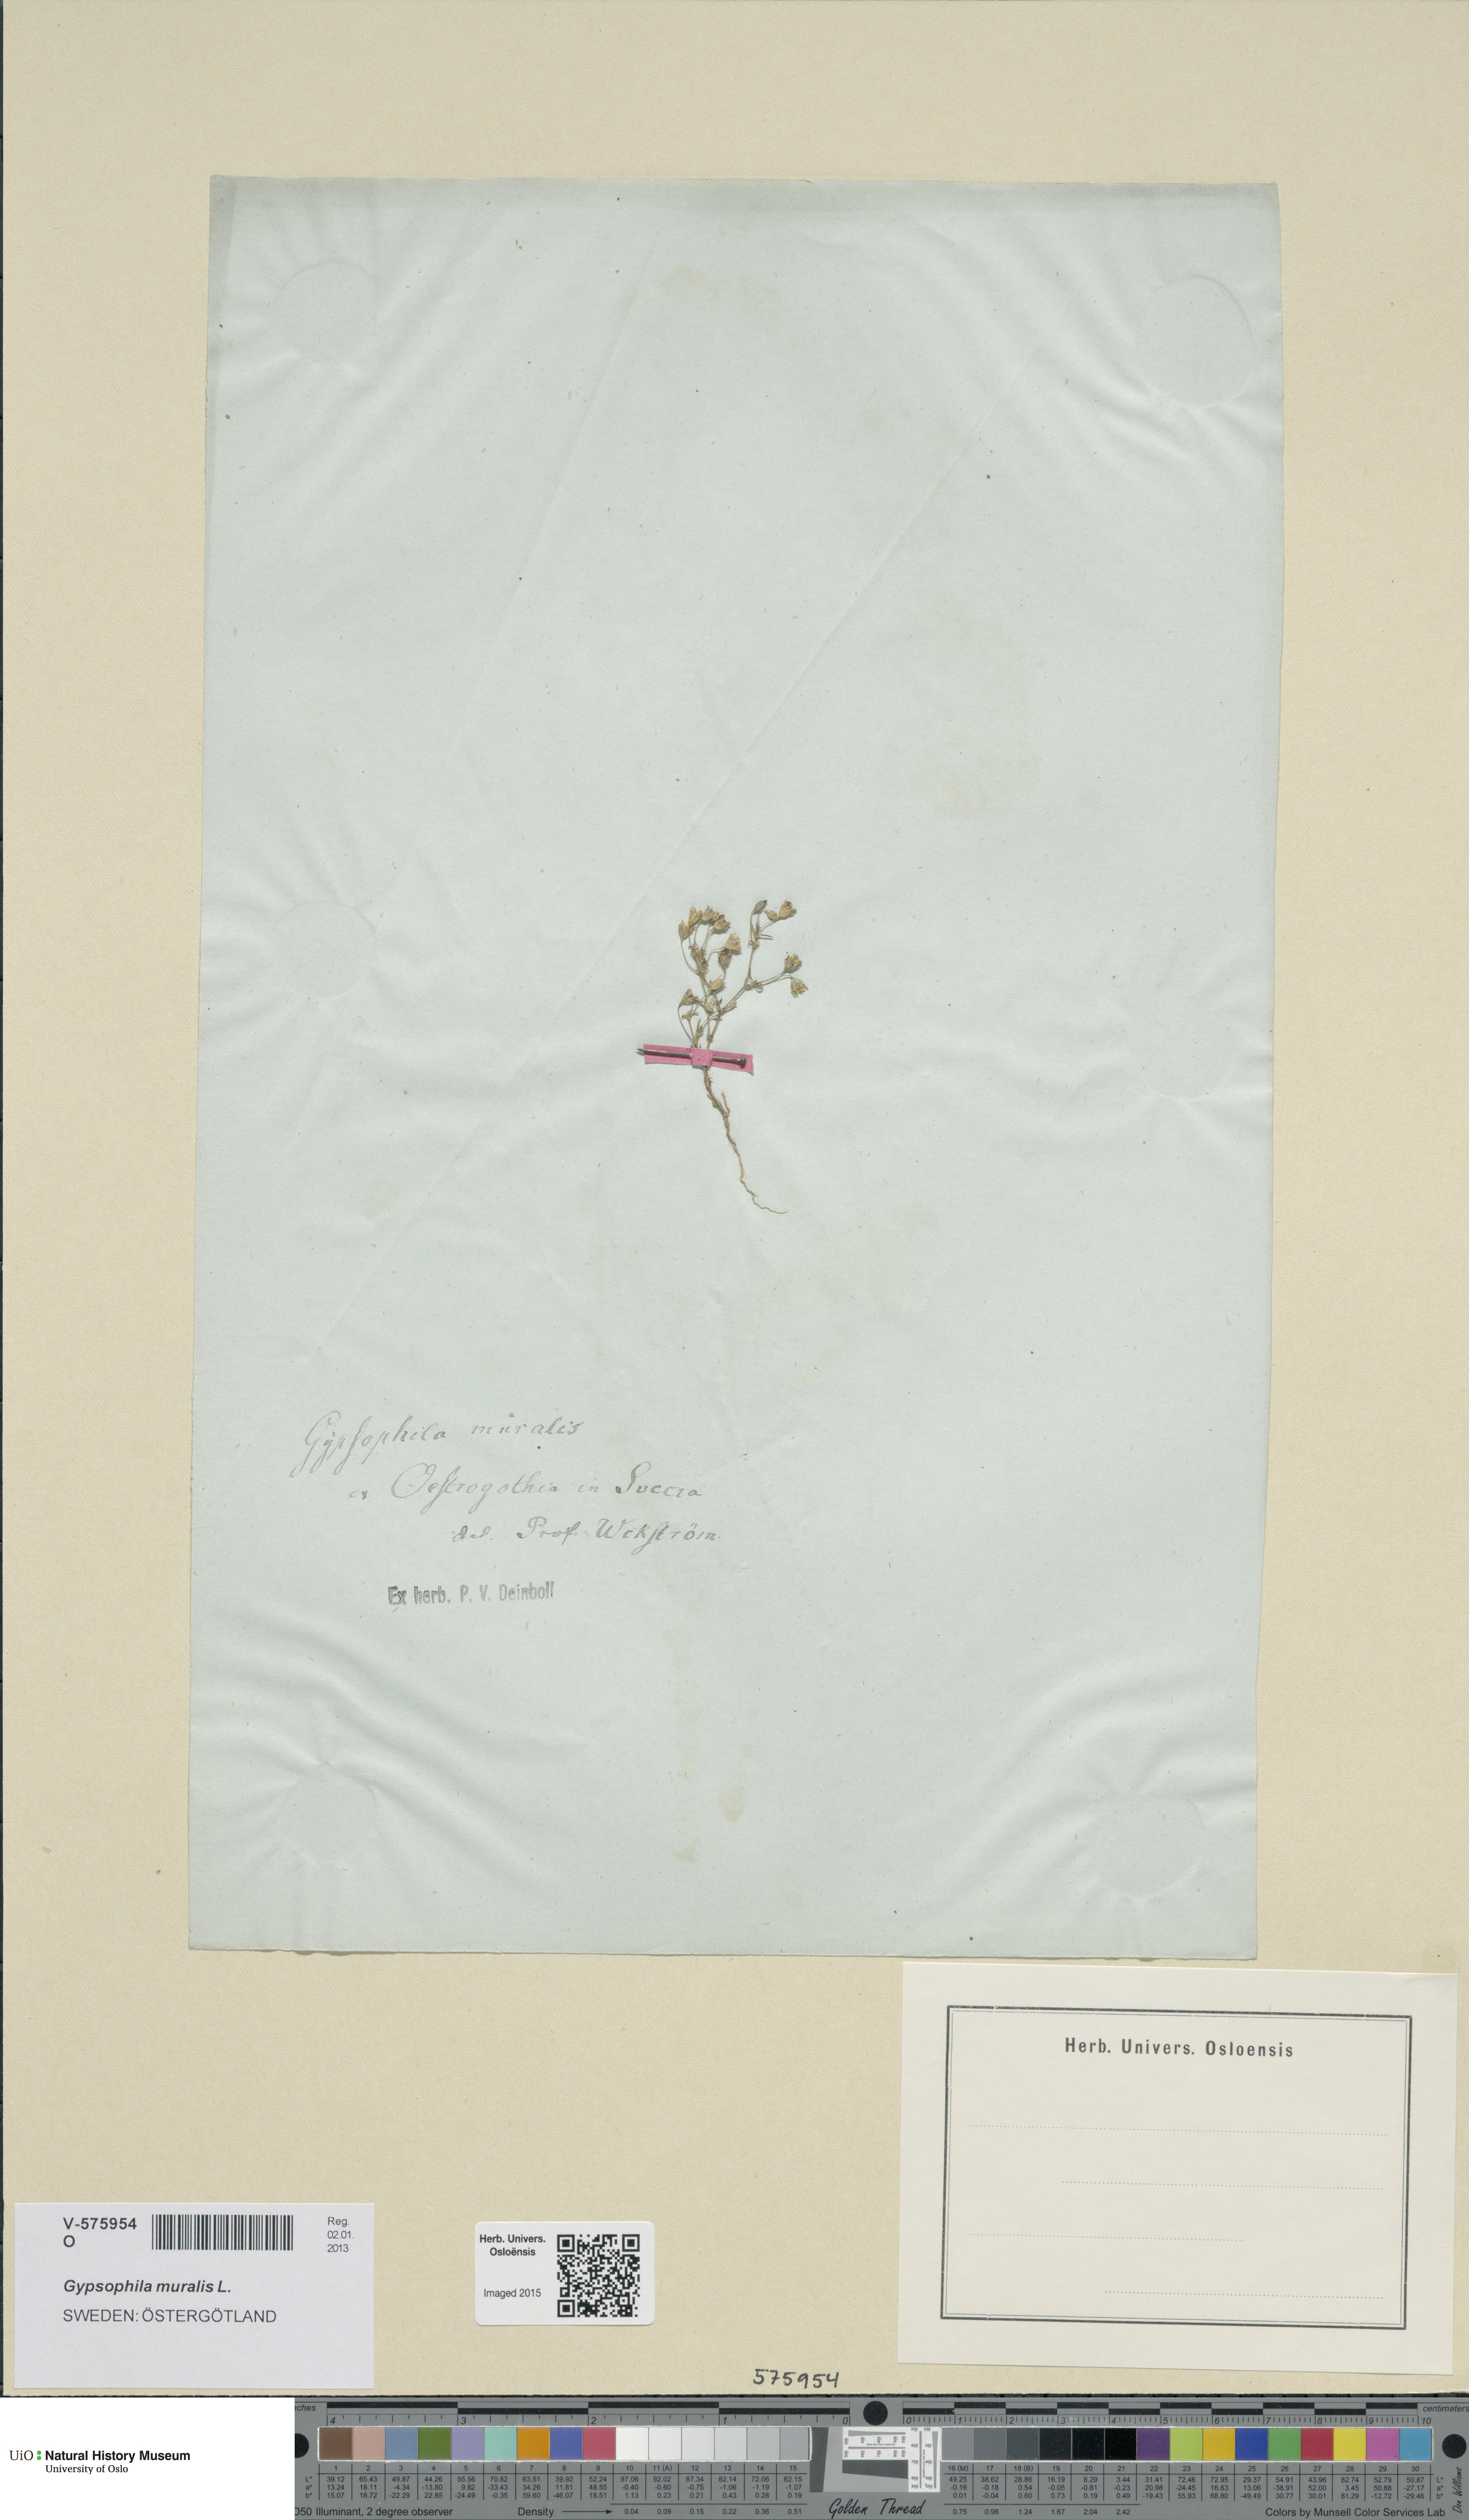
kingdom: Plantae
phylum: Tracheophyta
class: Magnoliopsida
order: Caryophyllales
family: Caryophyllaceae
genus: Psammophiliella
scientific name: Psammophiliella muralis
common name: Cushion baby's-breath
